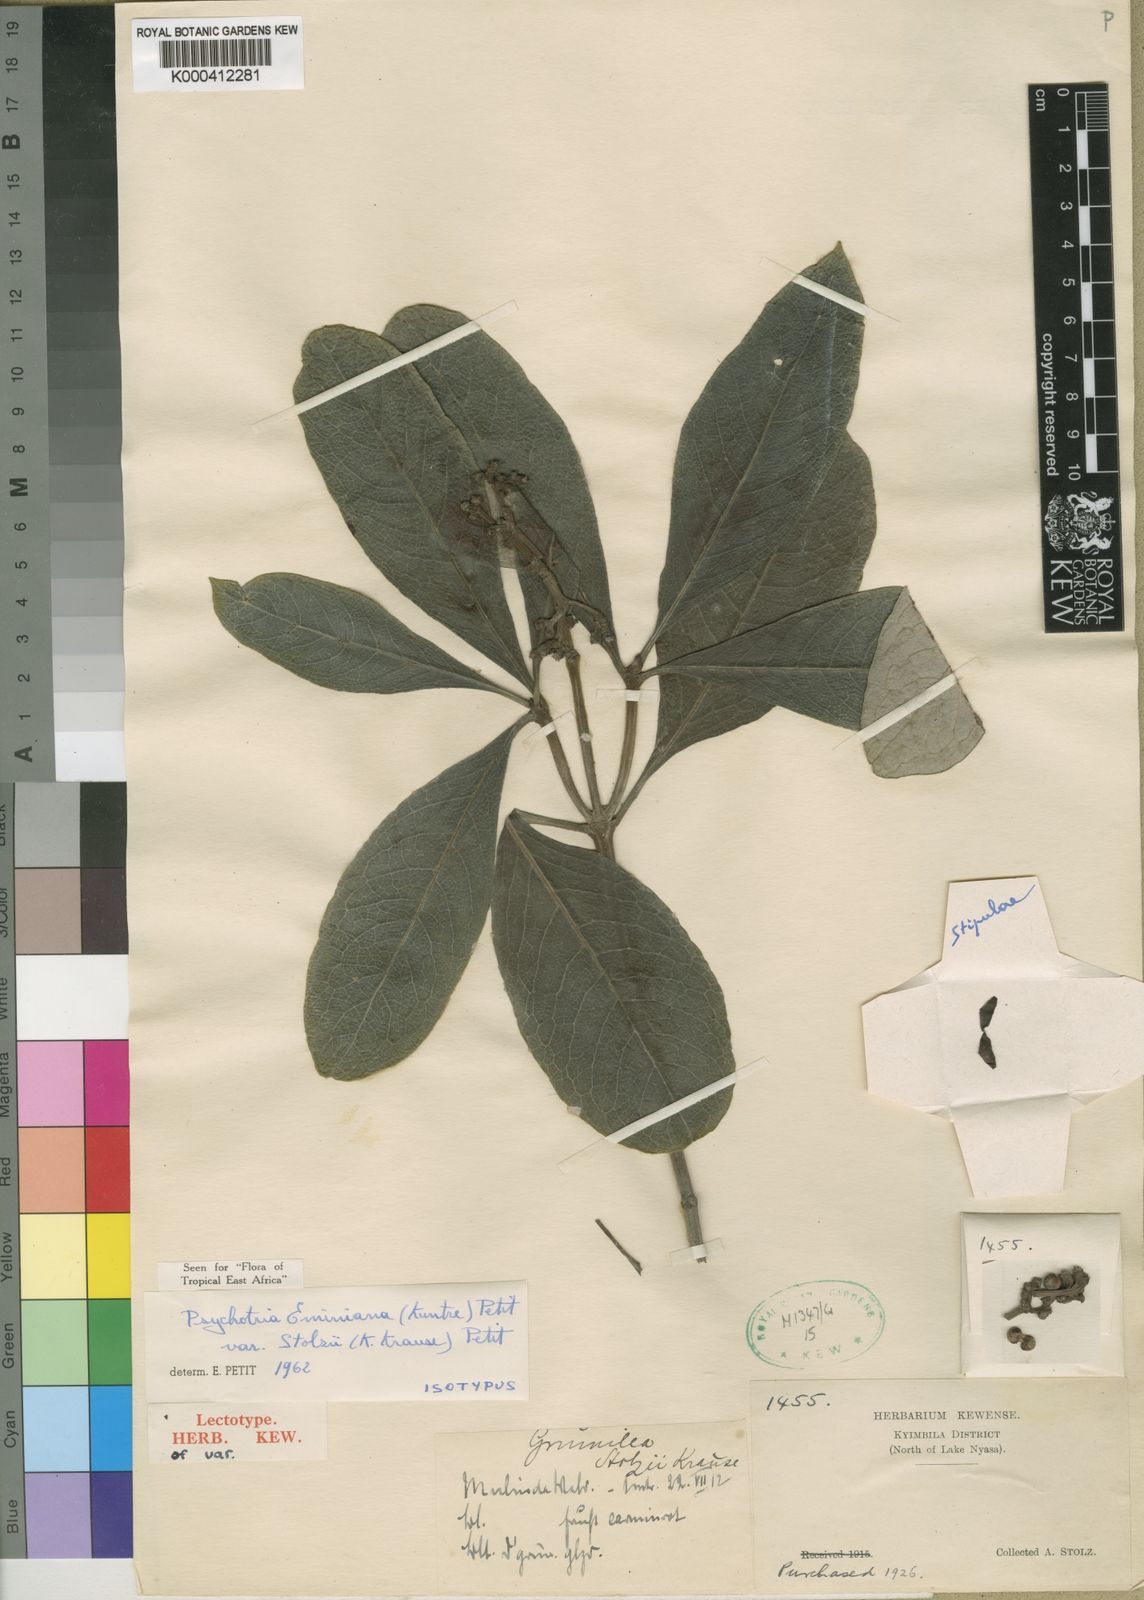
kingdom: Plantae
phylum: Tracheophyta
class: Magnoliopsida
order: Gentianales
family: Rubiaceae
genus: Psychotria
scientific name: Psychotria eminiana
